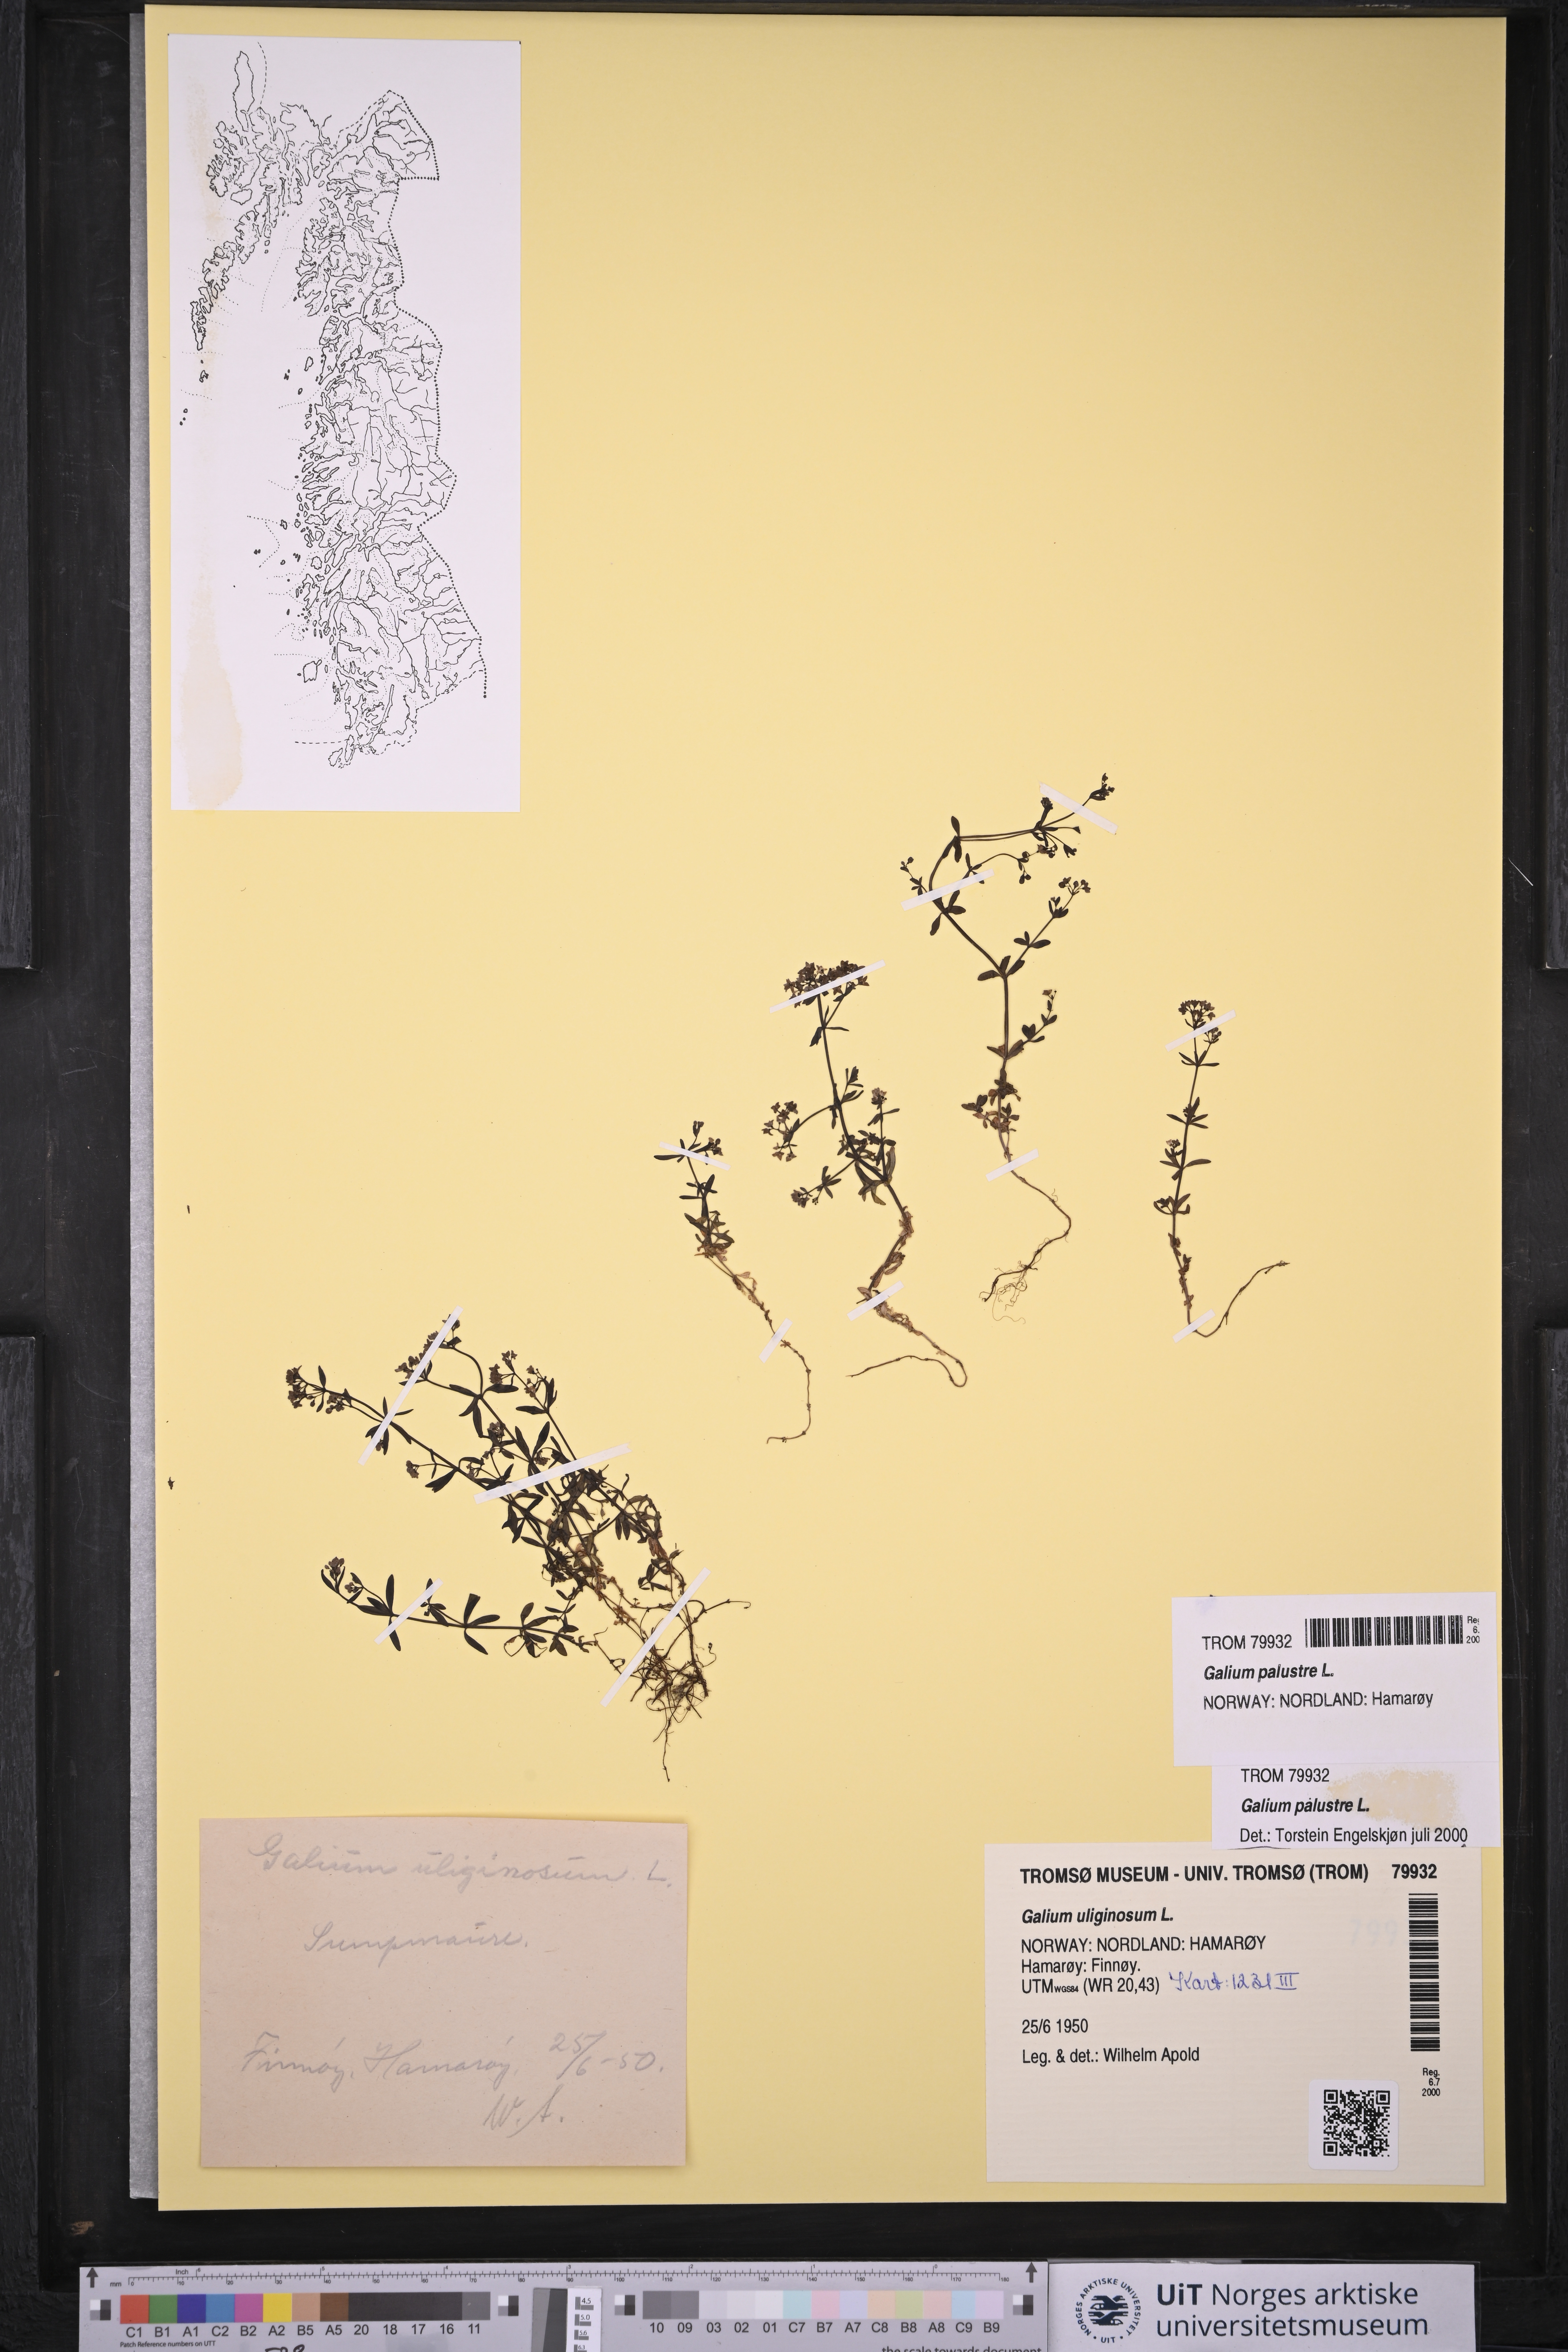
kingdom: Plantae
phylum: Tracheophyta
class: Magnoliopsida
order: Gentianales
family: Rubiaceae
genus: Galium
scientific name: Galium palustre
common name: Common marsh-bedstraw
